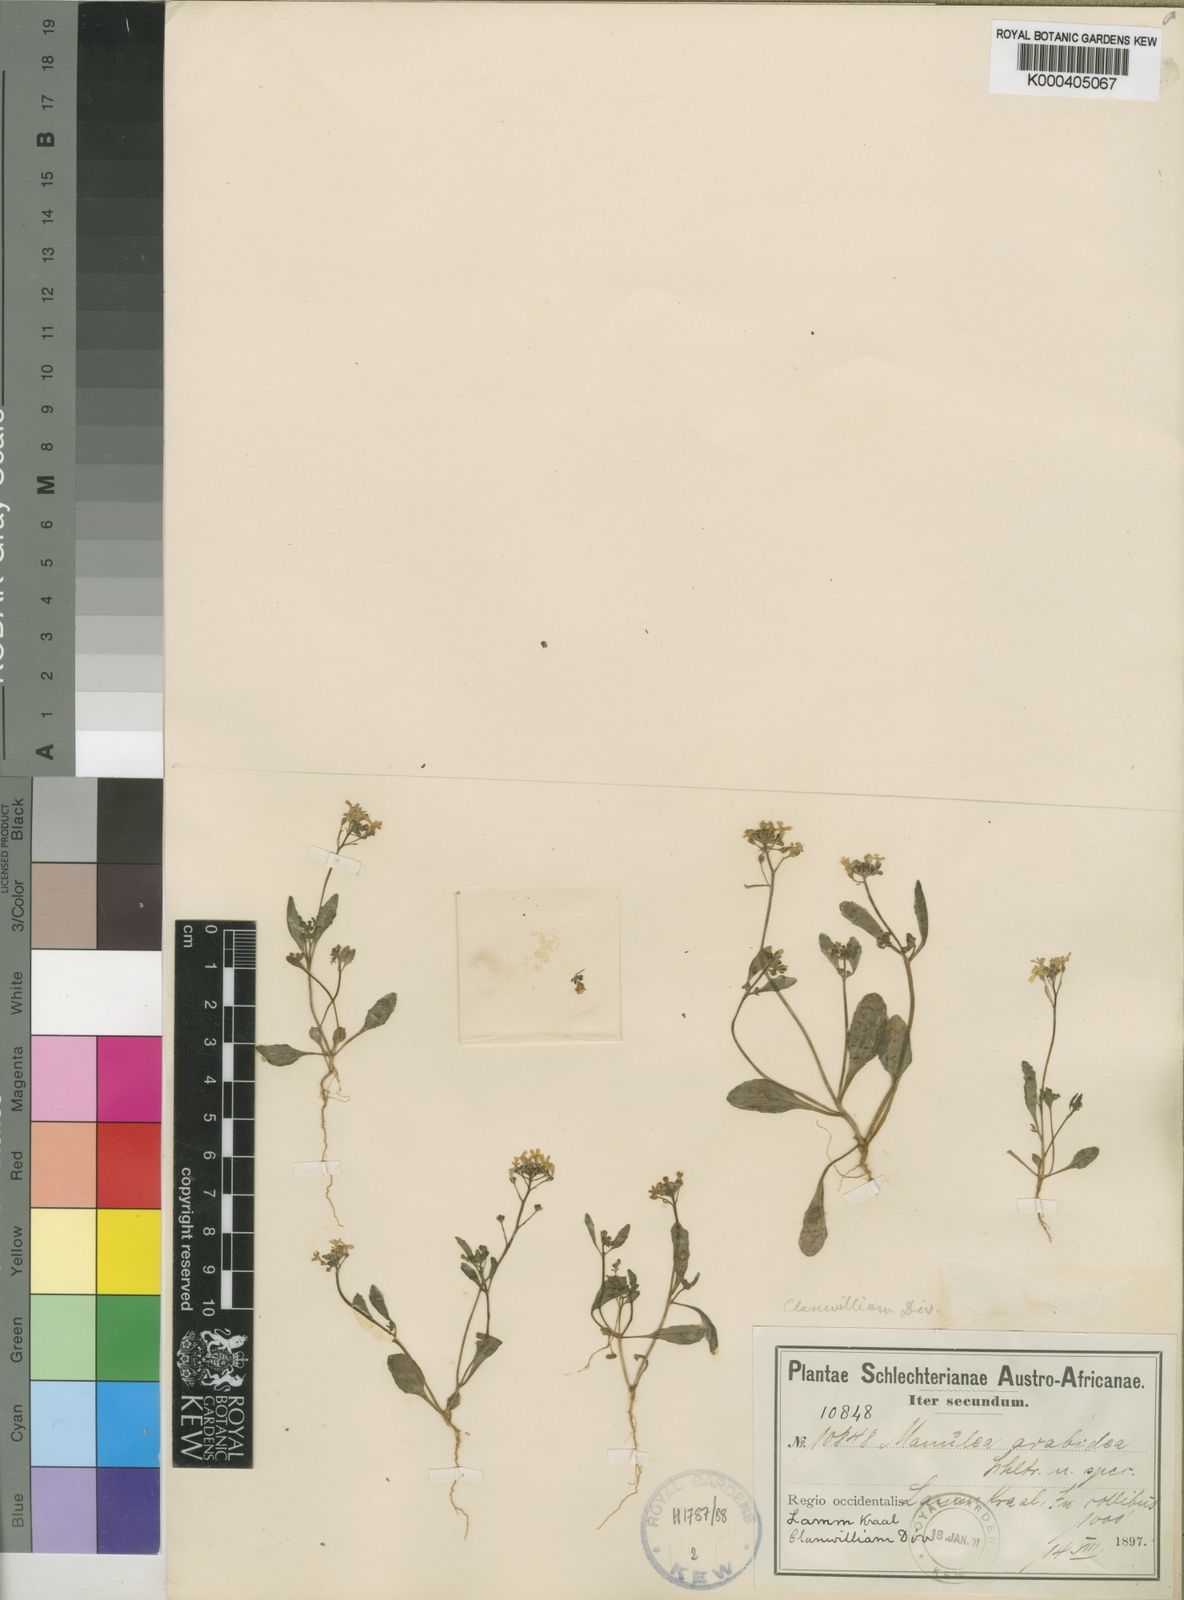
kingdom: Plantae
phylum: Tracheophyta
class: Magnoliopsida
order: Lamiales
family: Scrophulariaceae
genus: Manulea
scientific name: Manulea arabidea
